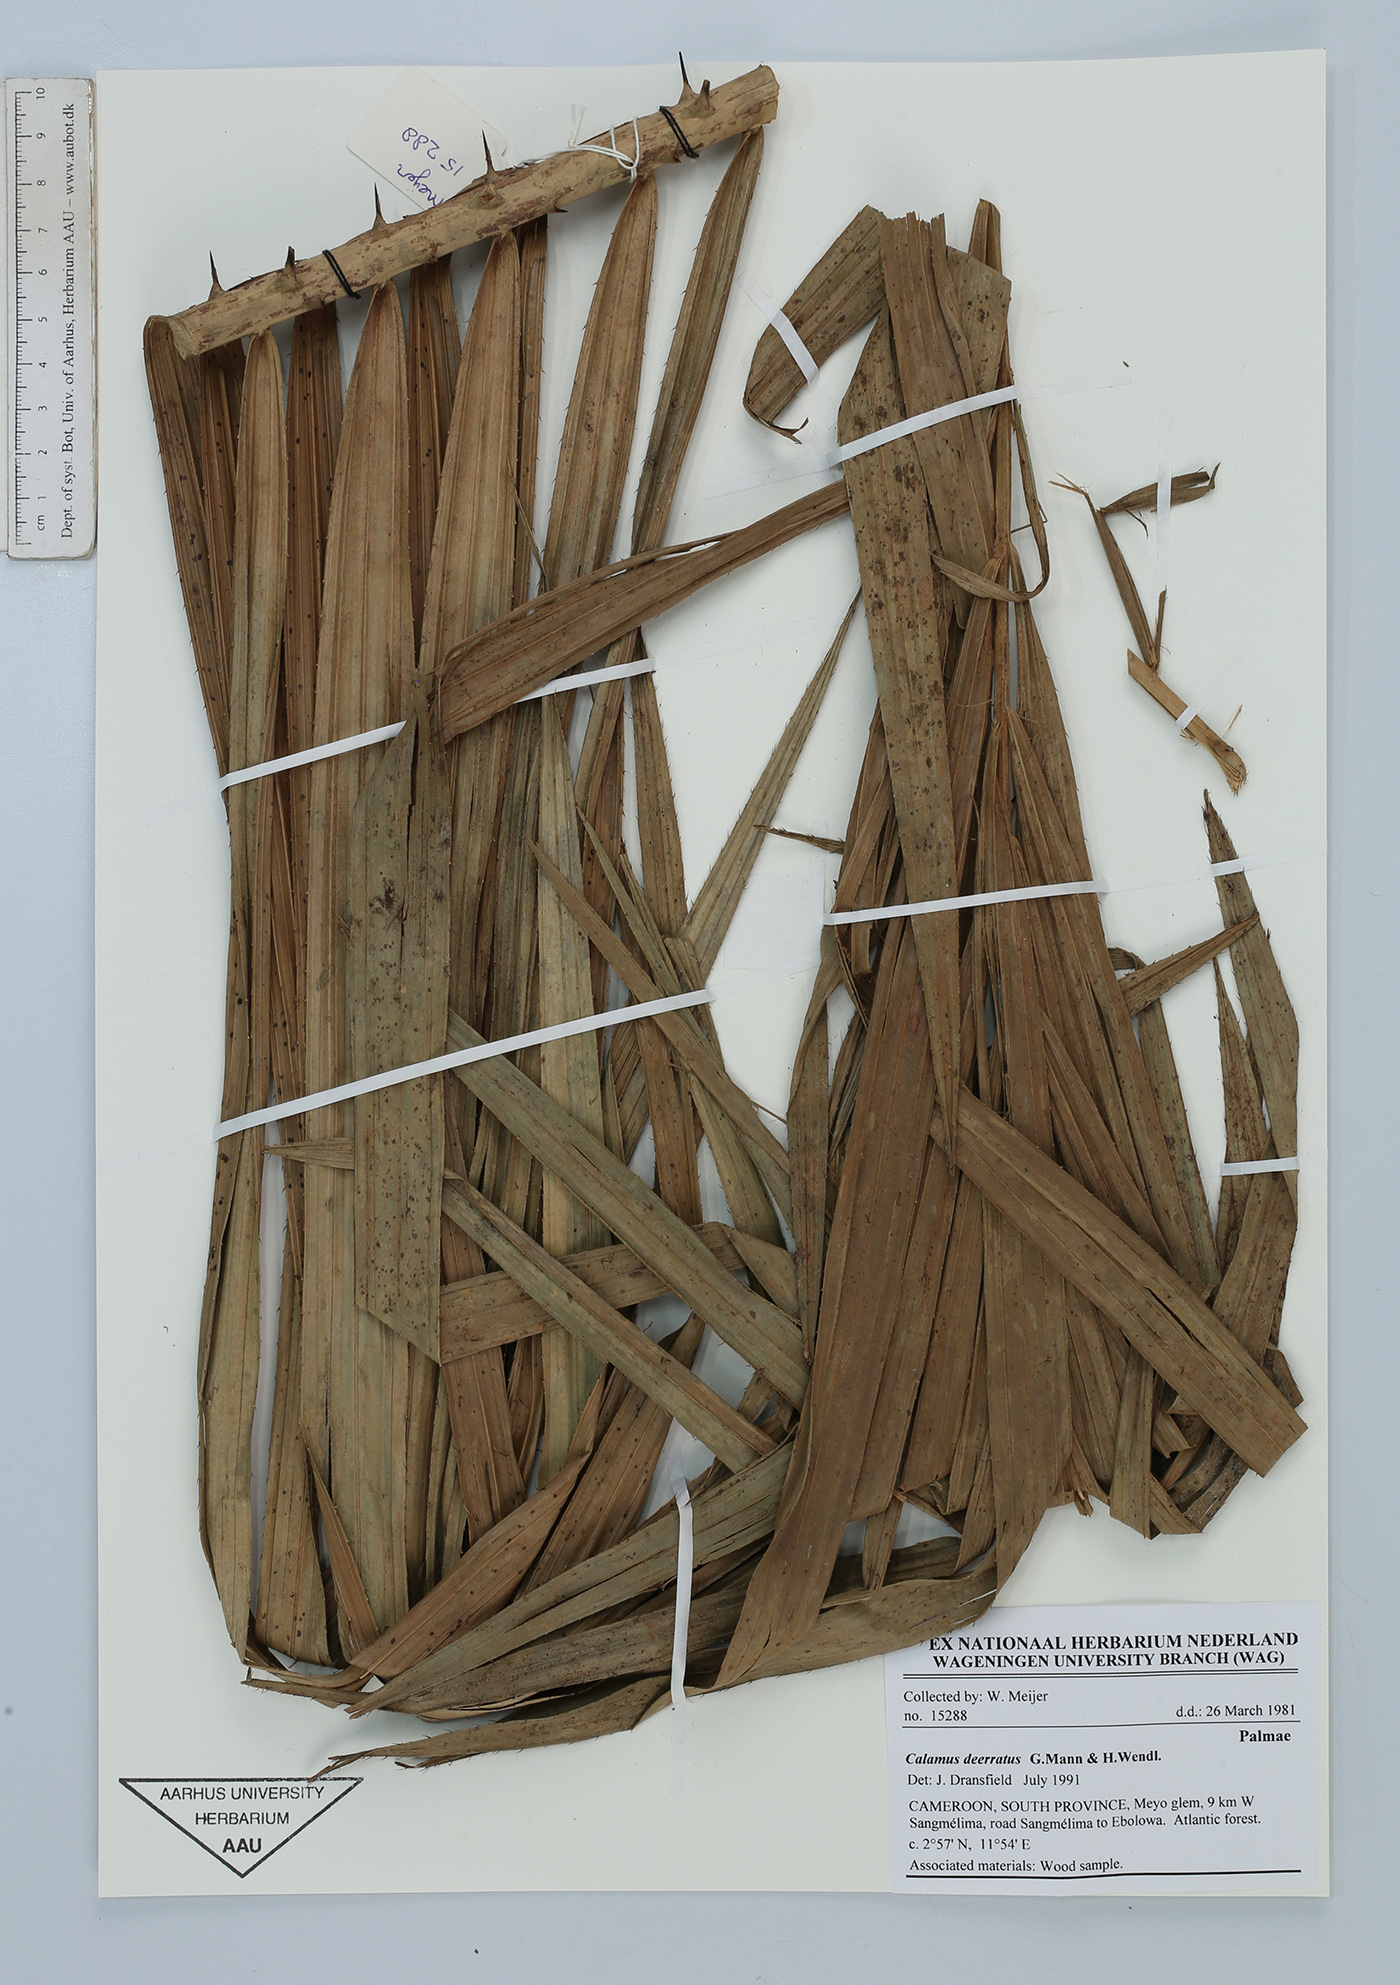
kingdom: Plantae
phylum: Tracheophyta
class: Liliopsida
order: Arecales
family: Arecaceae
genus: Calamus
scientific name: Calamus deerratus
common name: Rattan
